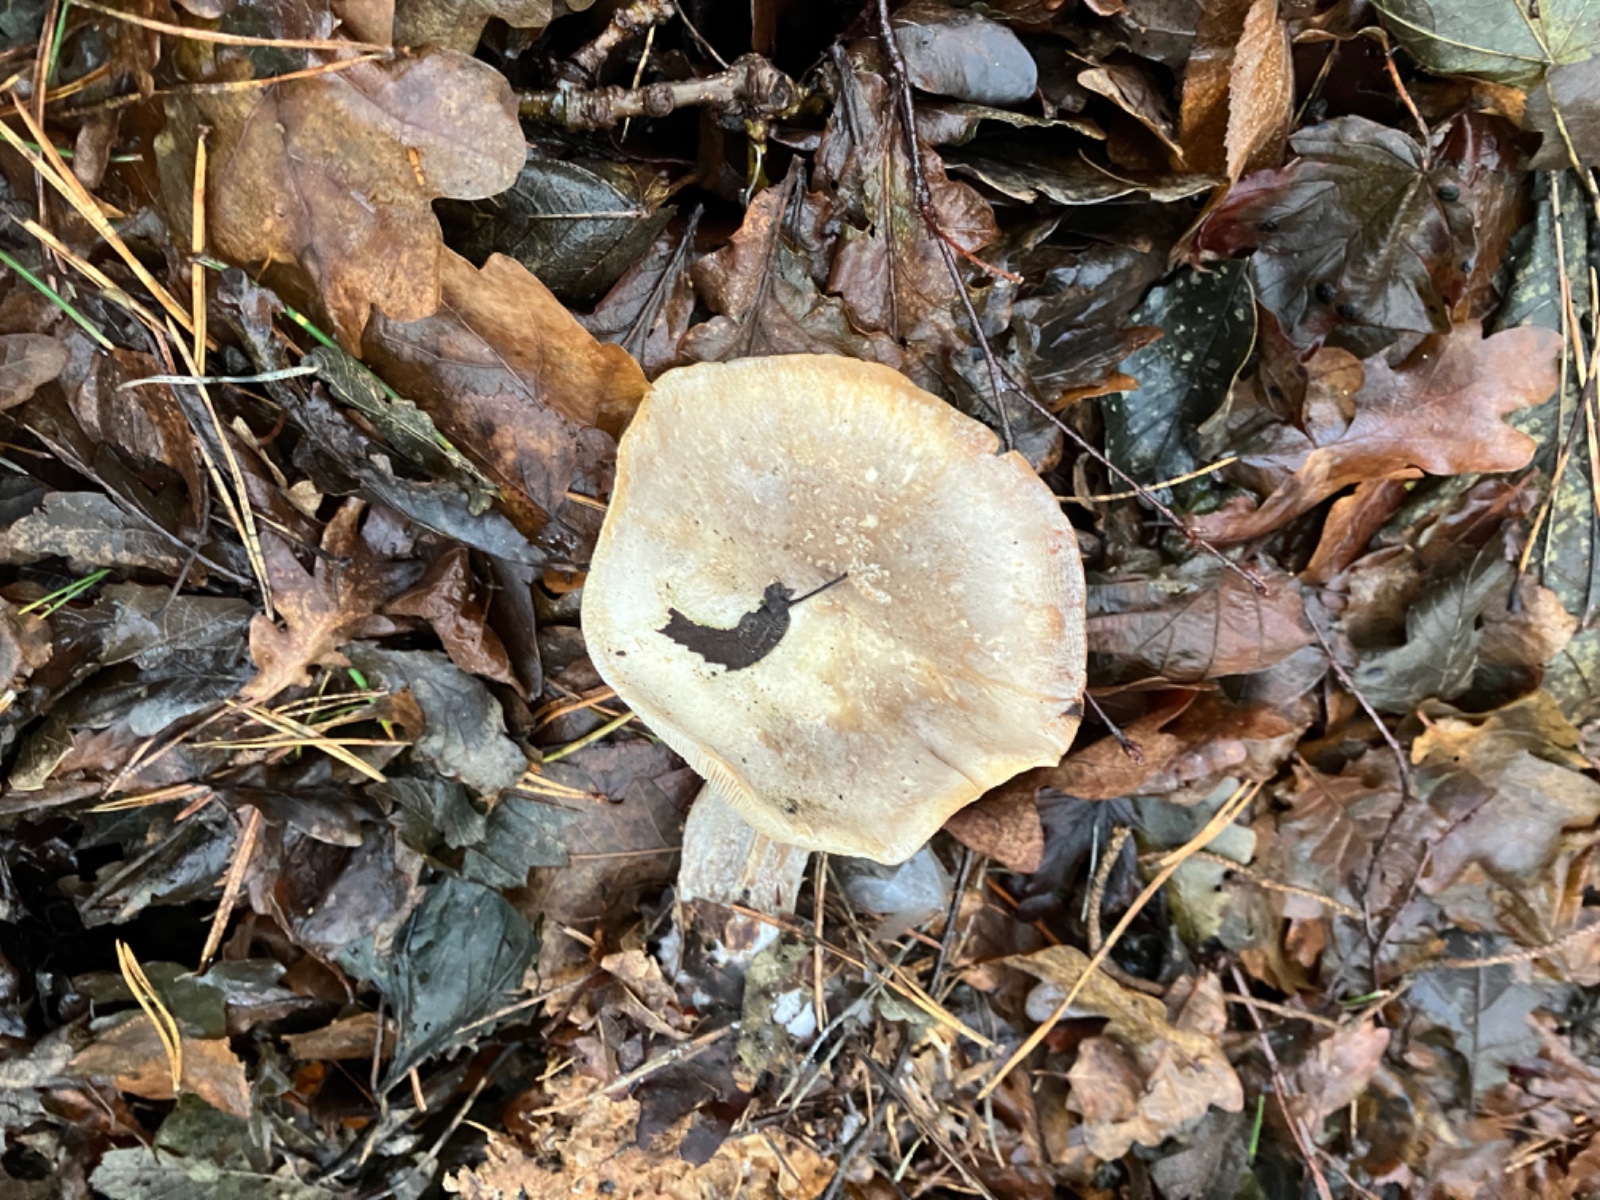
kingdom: Fungi
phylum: Basidiomycota
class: Agaricomycetes
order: Agaricales
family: Tricholomataceae
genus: Clitocybe
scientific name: Clitocybe nebularis
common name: tåge-tragthat
